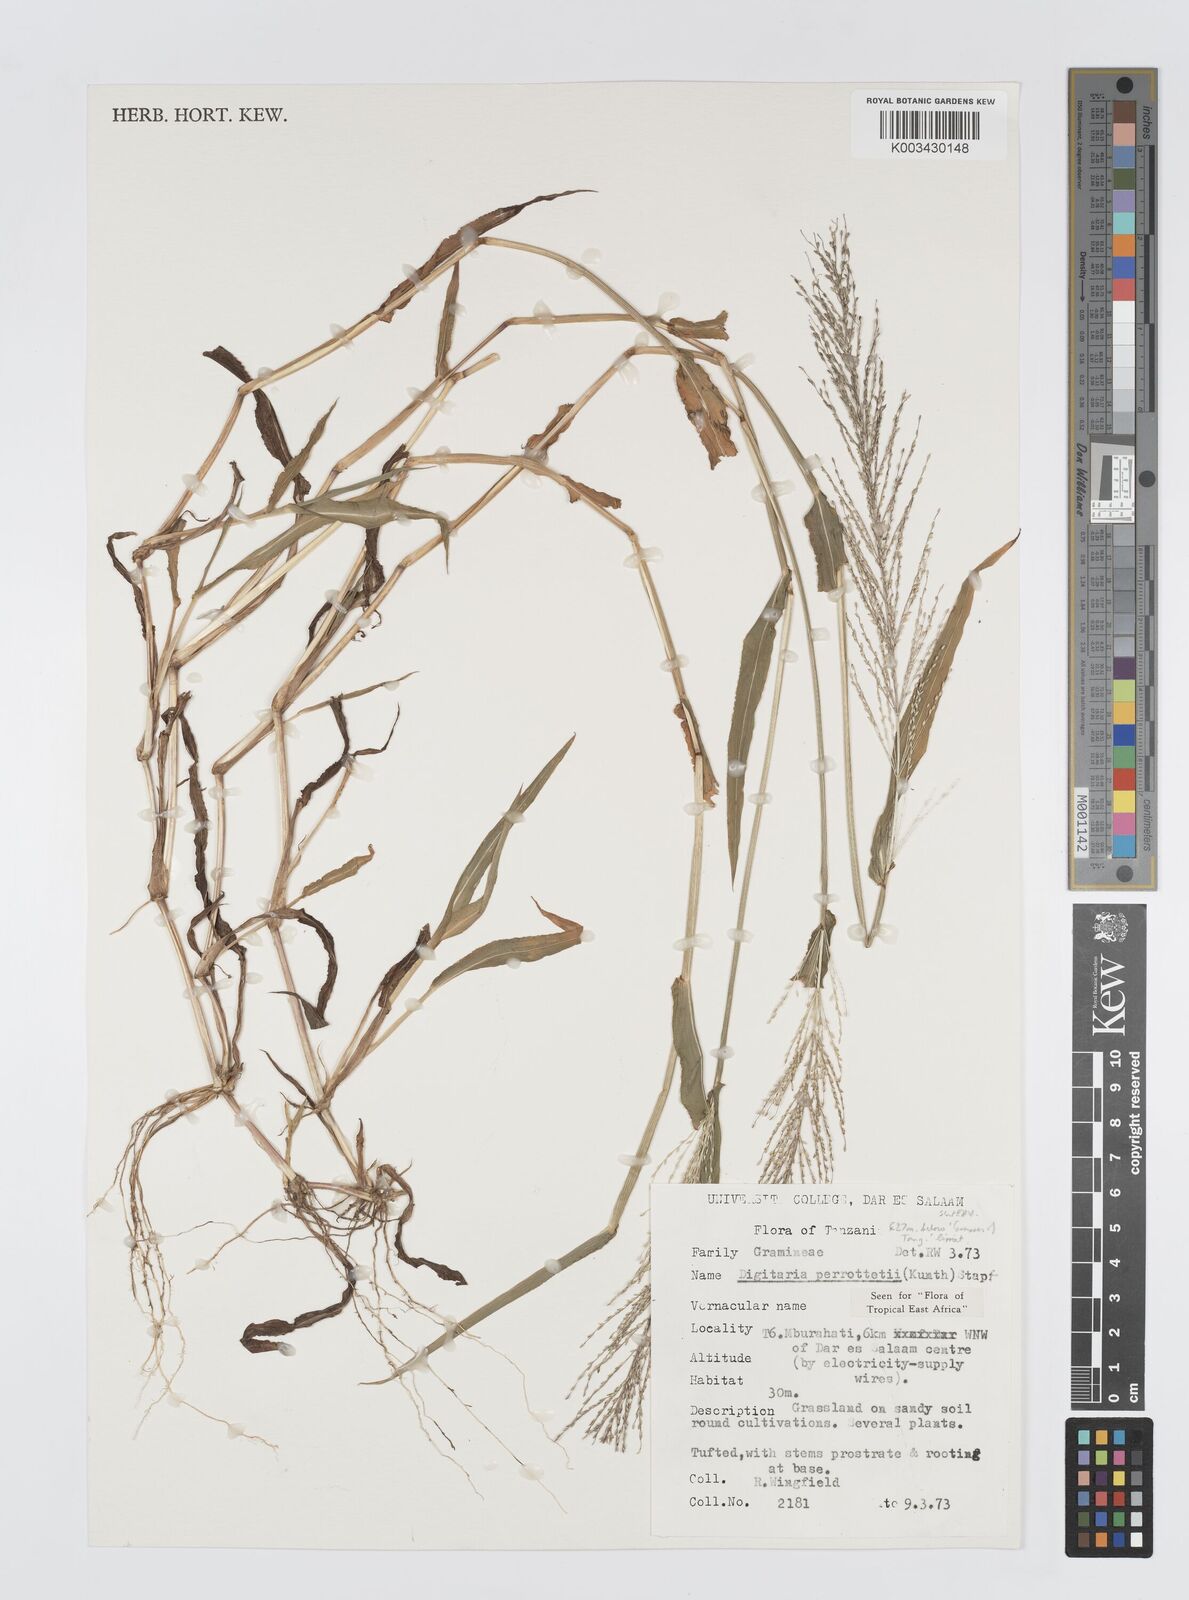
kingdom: Plantae
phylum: Tracheophyta
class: Liliopsida
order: Poales
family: Poaceae
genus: Digitaria
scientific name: Digitaria perrottetii
